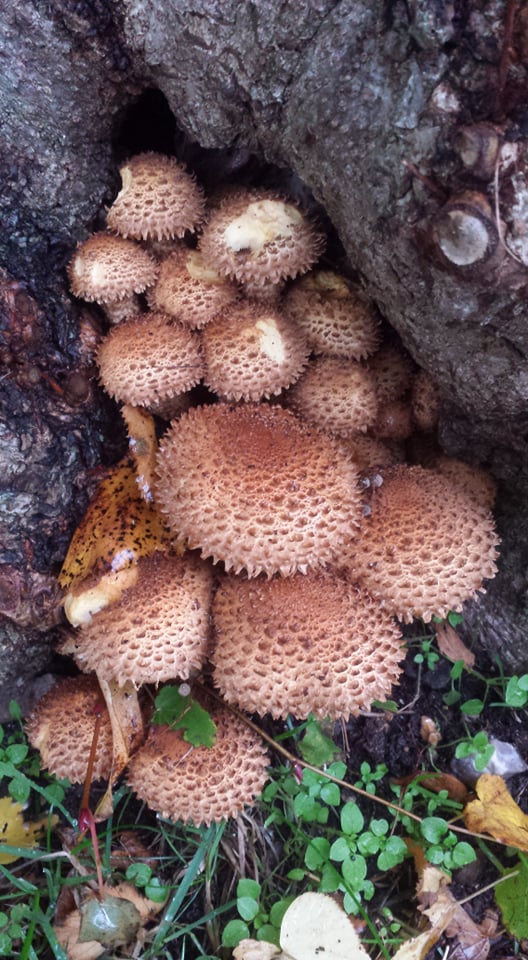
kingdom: Fungi
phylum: Basidiomycota
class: Agaricomycetes
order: Agaricales
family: Strophariaceae
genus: Pholiota
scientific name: Pholiota squarrosa
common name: krumskællet skælhat
